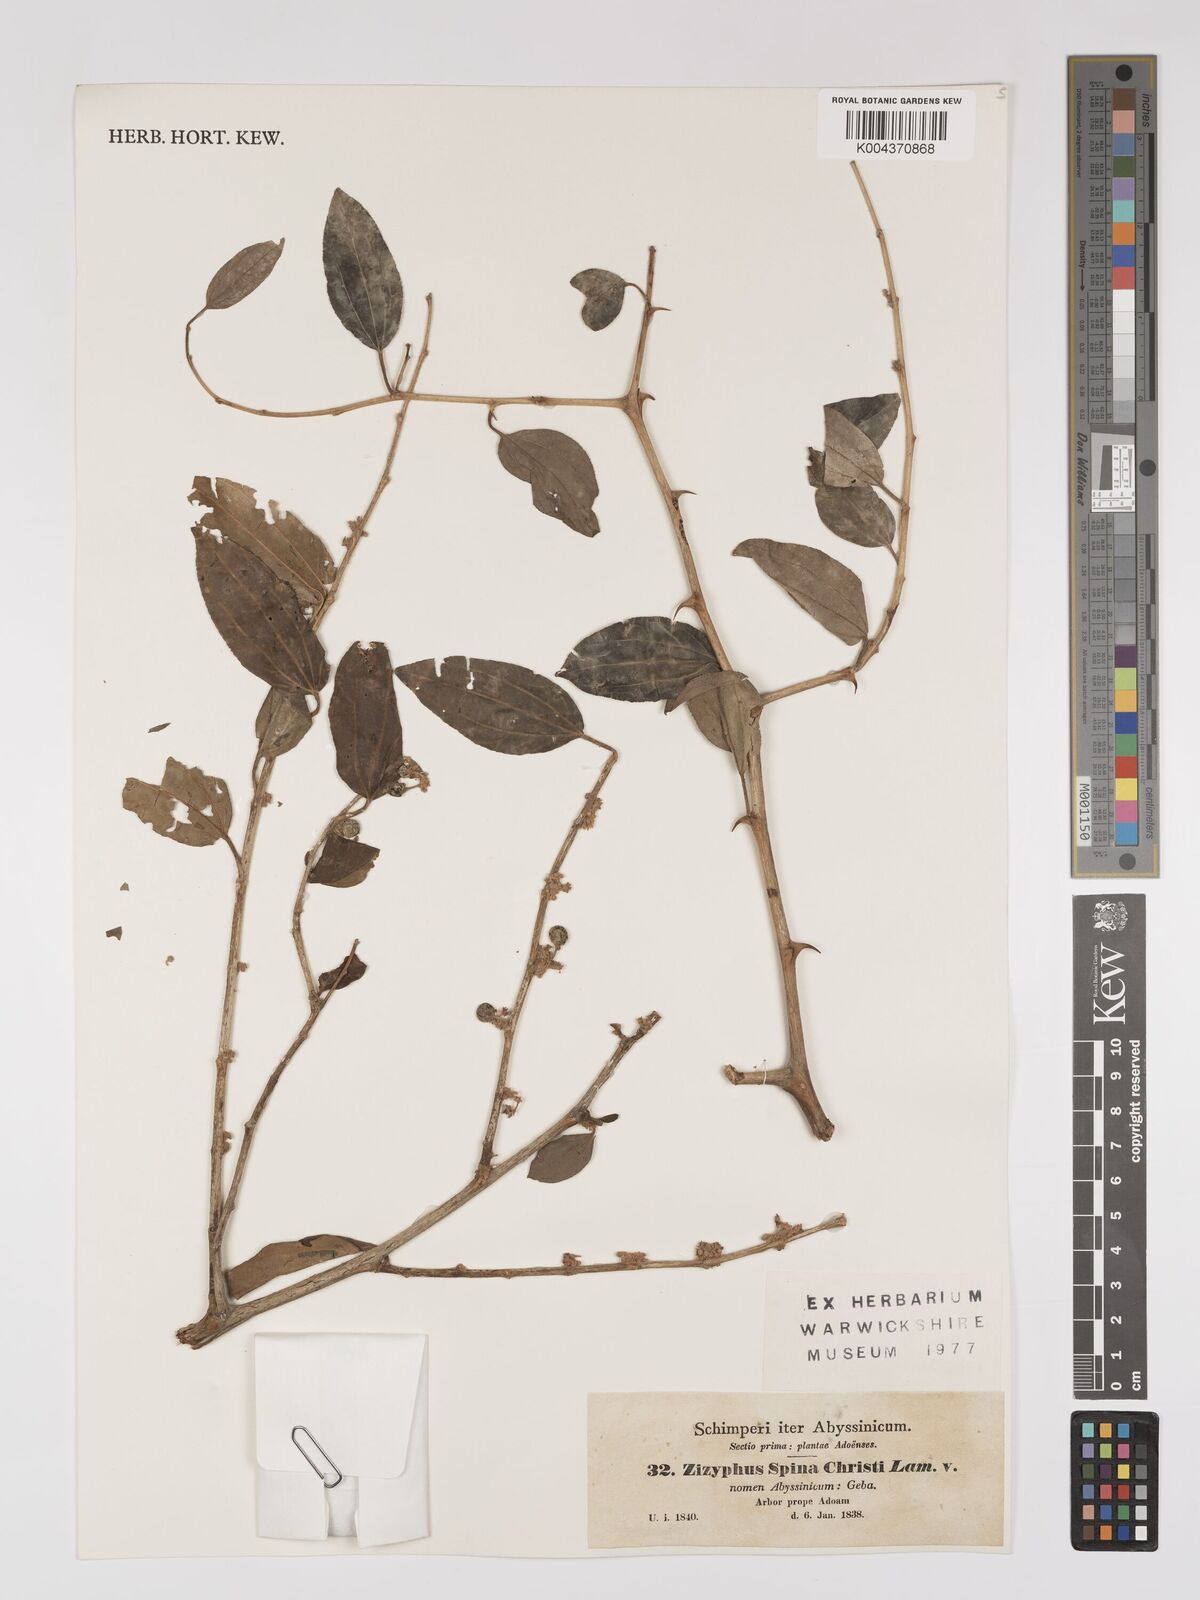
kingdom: Plantae
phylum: Tracheophyta
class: Magnoliopsida
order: Rosales
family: Rhamnaceae
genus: Ziziphus
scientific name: Ziziphus spina-christi
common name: Syrian christ-thorn
